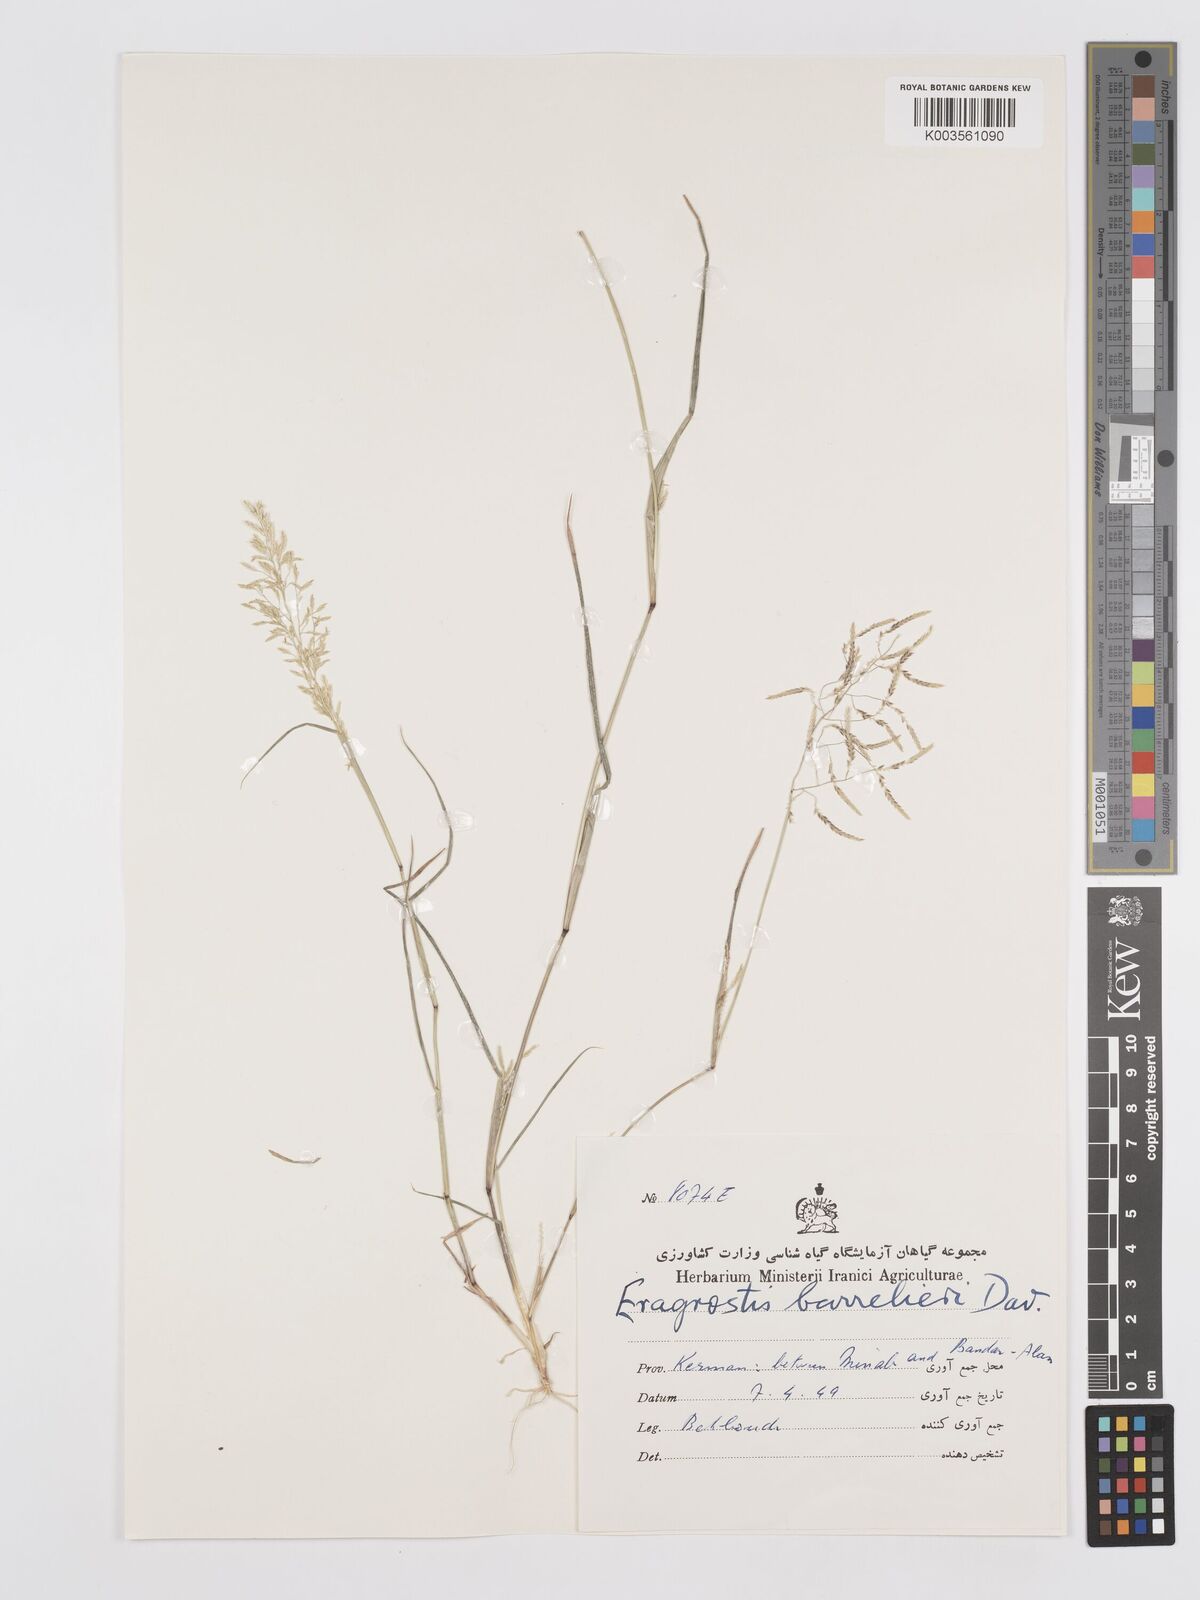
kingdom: Plantae
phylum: Tracheophyta
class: Liliopsida
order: Poales
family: Poaceae
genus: Eragrostis
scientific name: Eragrostis barrelieri
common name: Mediterranean lovegrass
